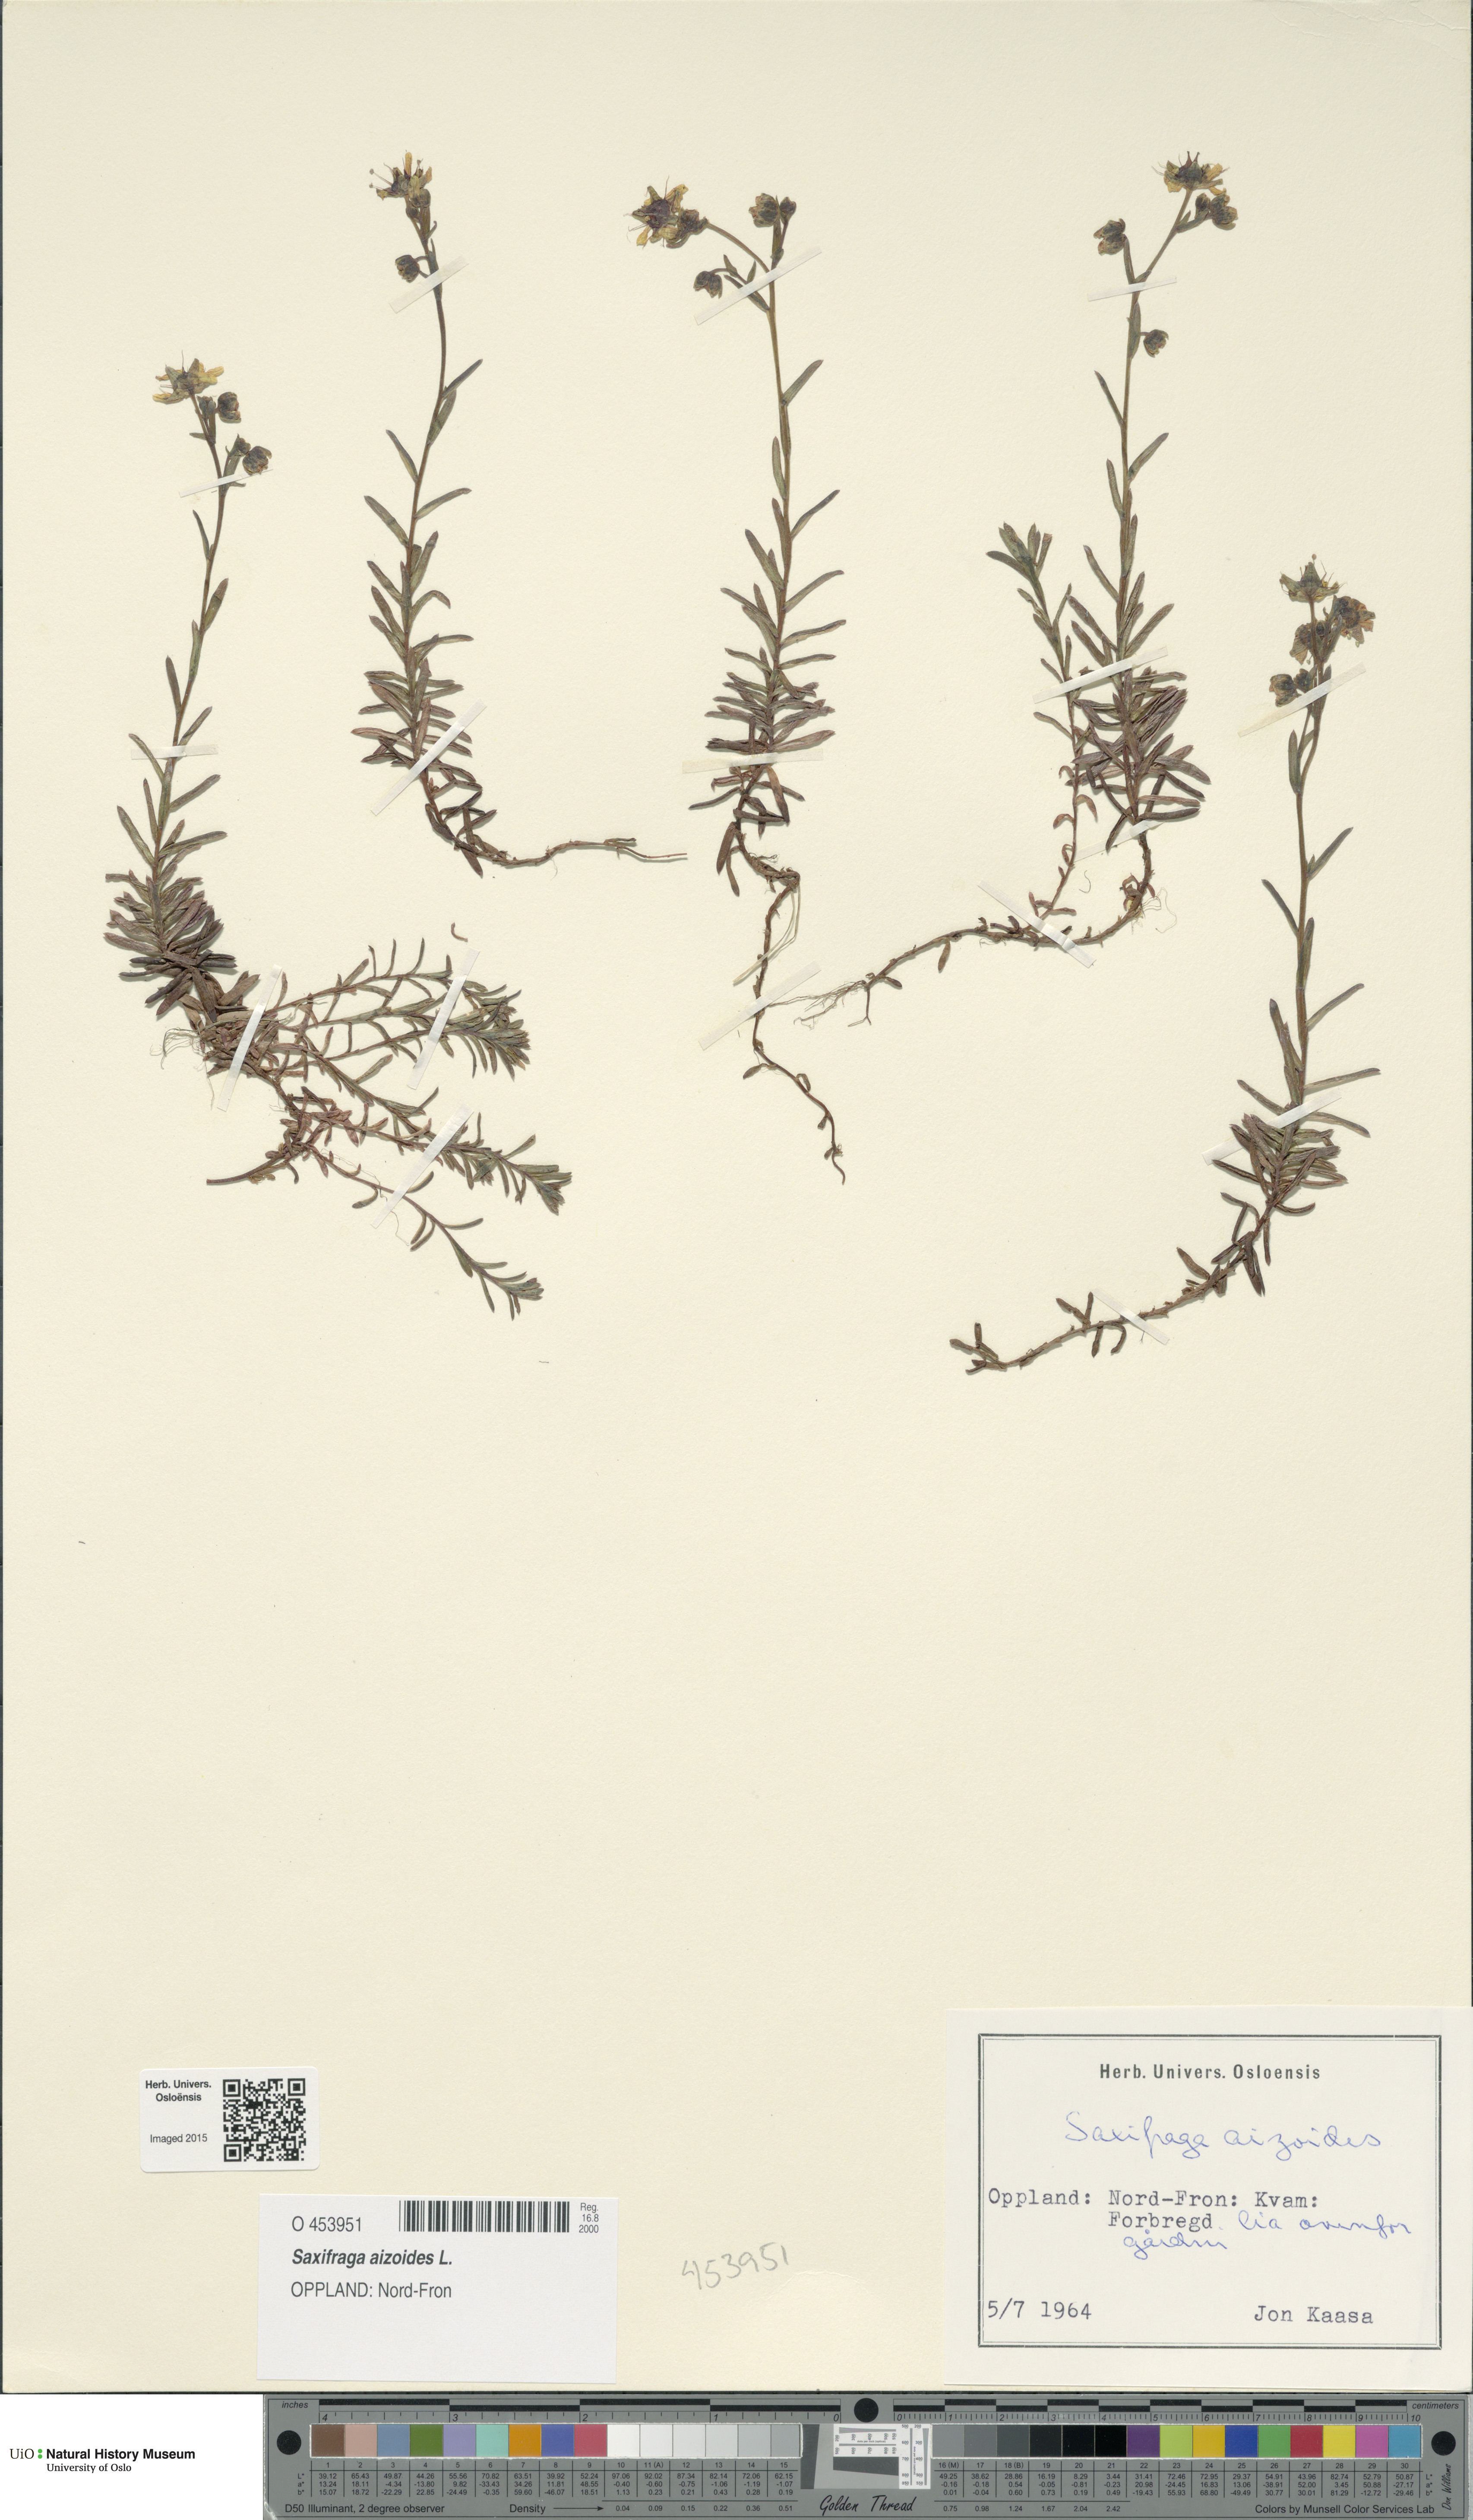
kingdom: Plantae
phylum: Tracheophyta
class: Magnoliopsida
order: Saxifragales
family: Saxifragaceae
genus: Saxifraga
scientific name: Saxifraga aizoides
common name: Yellow mountain saxifrage
